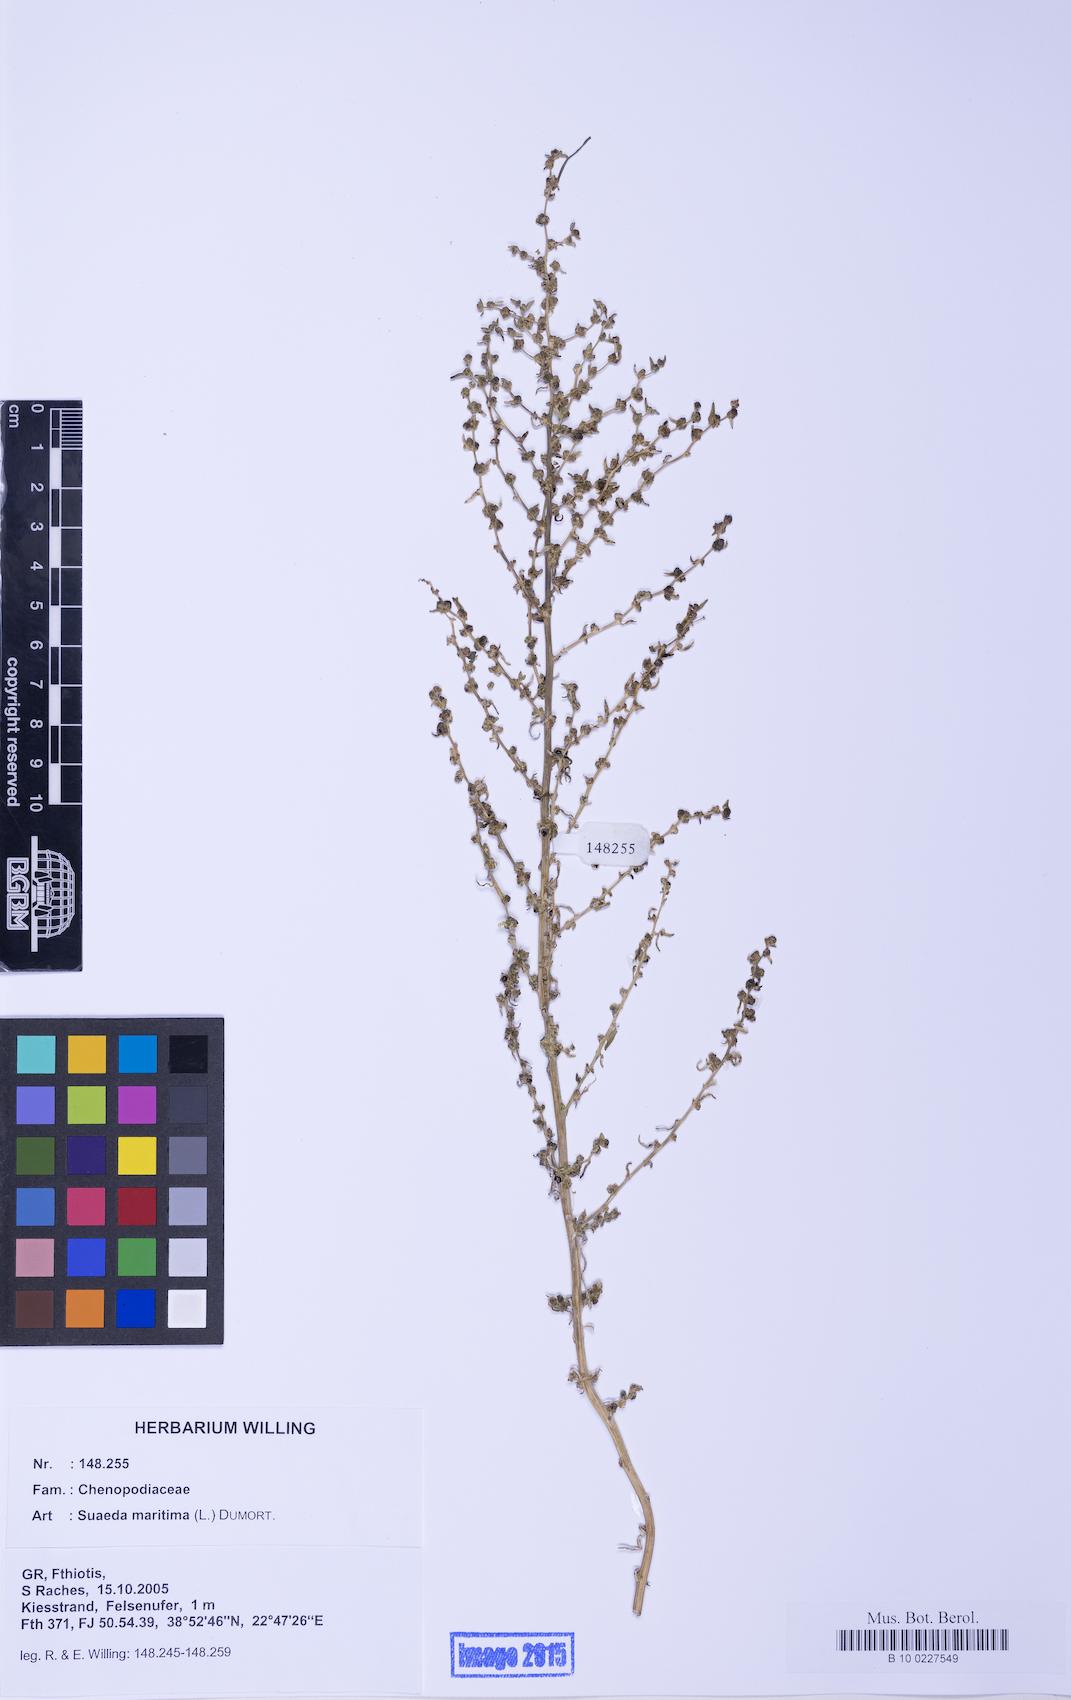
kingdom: Plantae
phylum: Tracheophyta
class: Magnoliopsida
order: Caryophyllales
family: Amaranthaceae
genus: Suaeda
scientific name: Suaeda maritima
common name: Annual sea-blite
